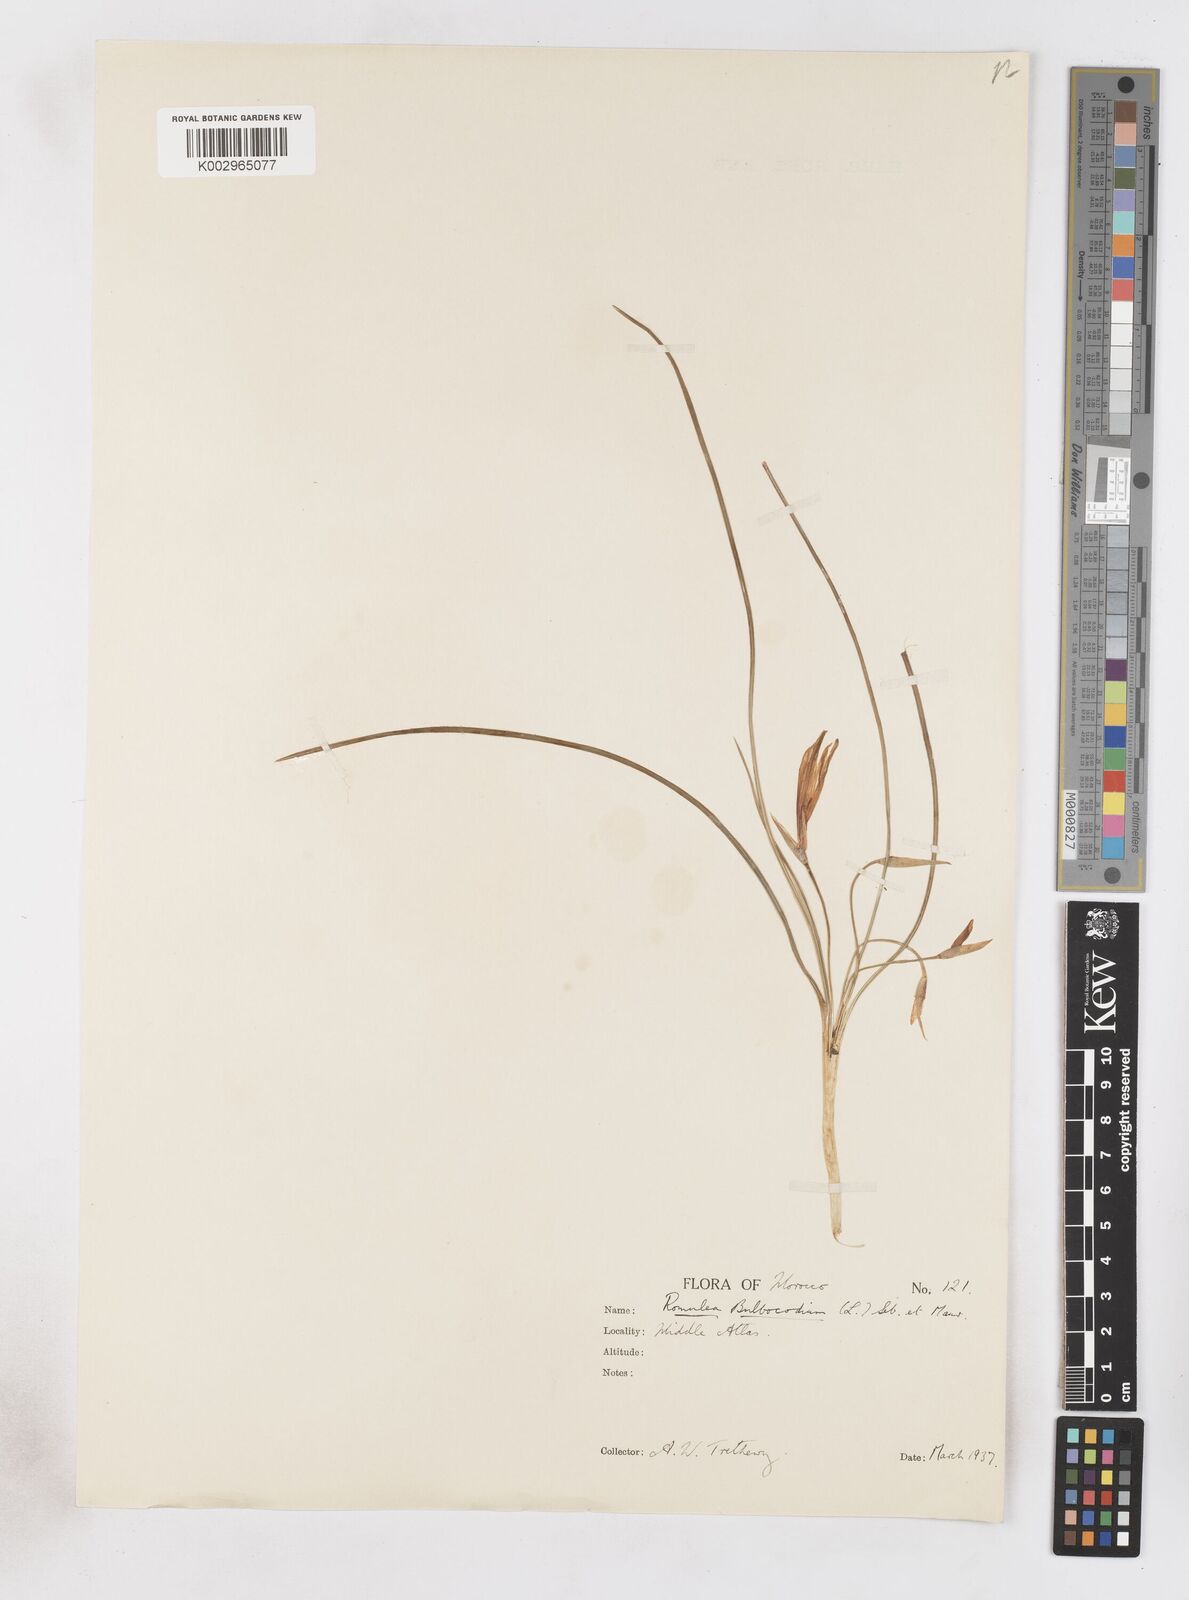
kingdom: Plantae
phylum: Tracheophyta
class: Liliopsida
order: Asparagales
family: Iridaceae
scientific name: Iridaceae
